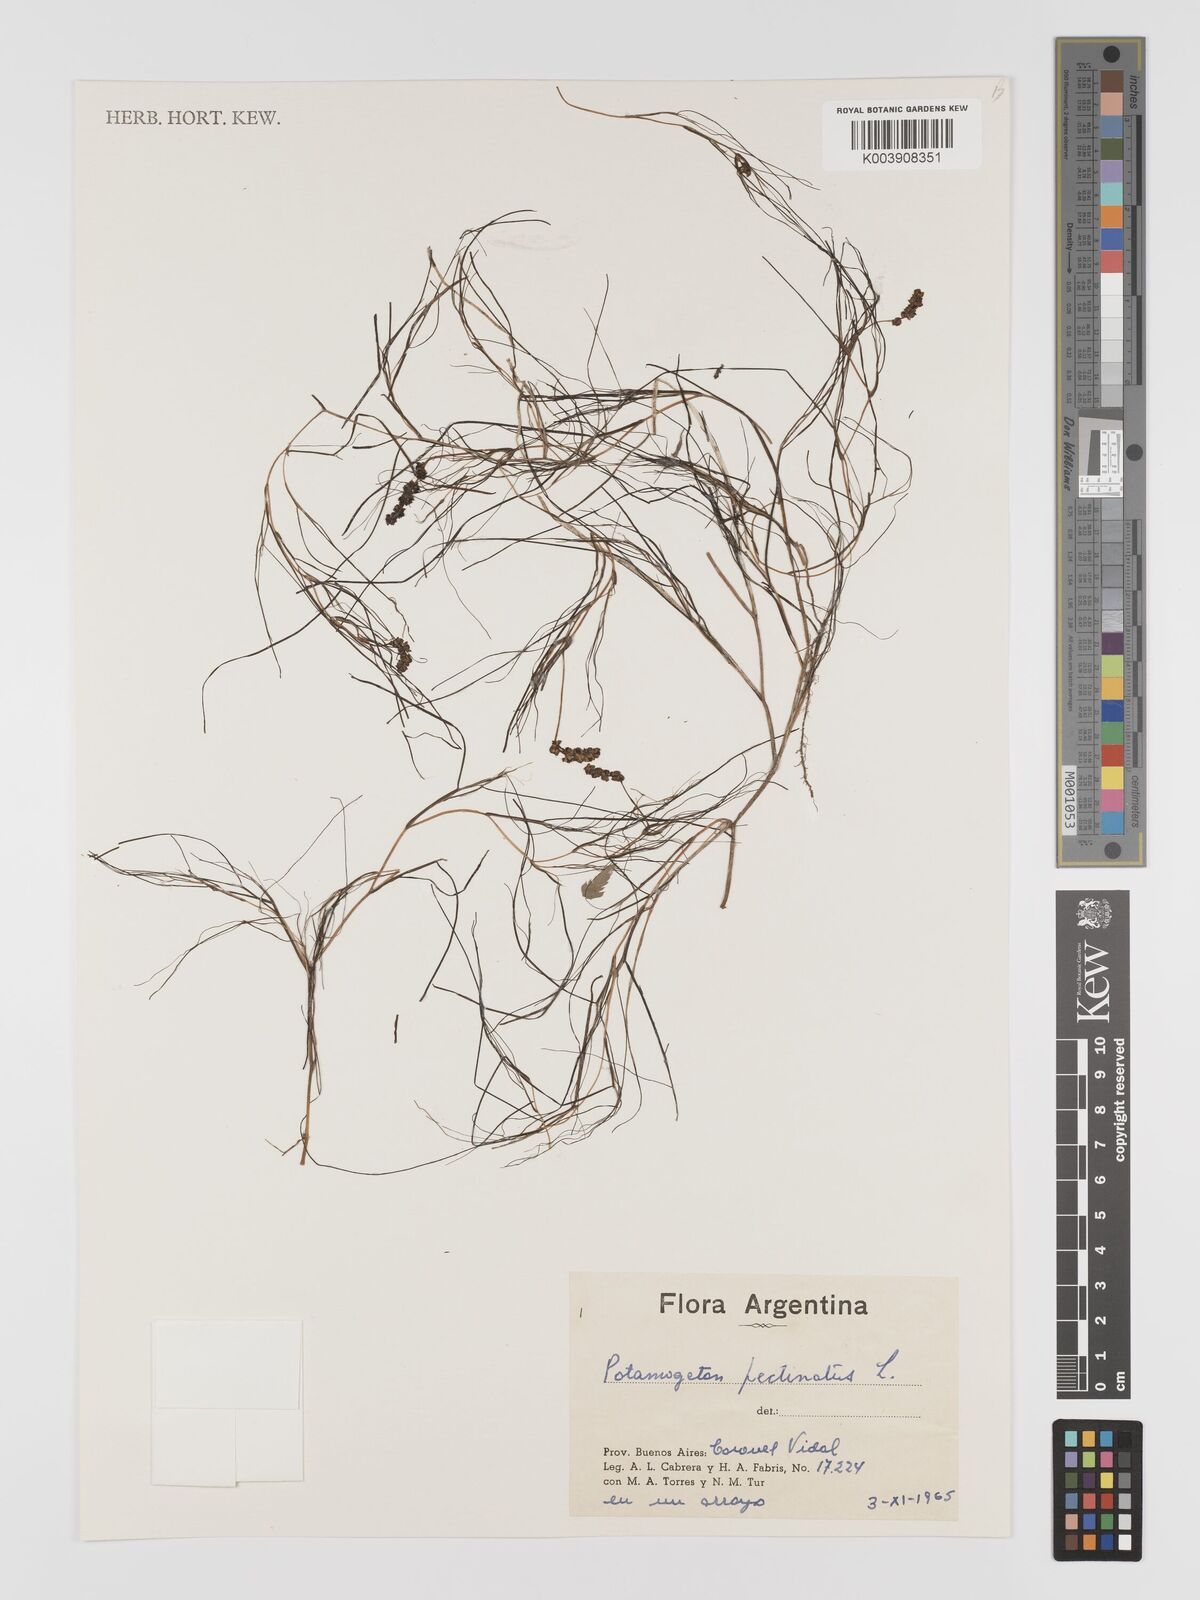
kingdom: Plantae
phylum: Tracheophyta
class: Liliopsida
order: Alismatales
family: Potamogetonaceae
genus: Stuckenia
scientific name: Stuckenia pectinata
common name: Sago pondweed
